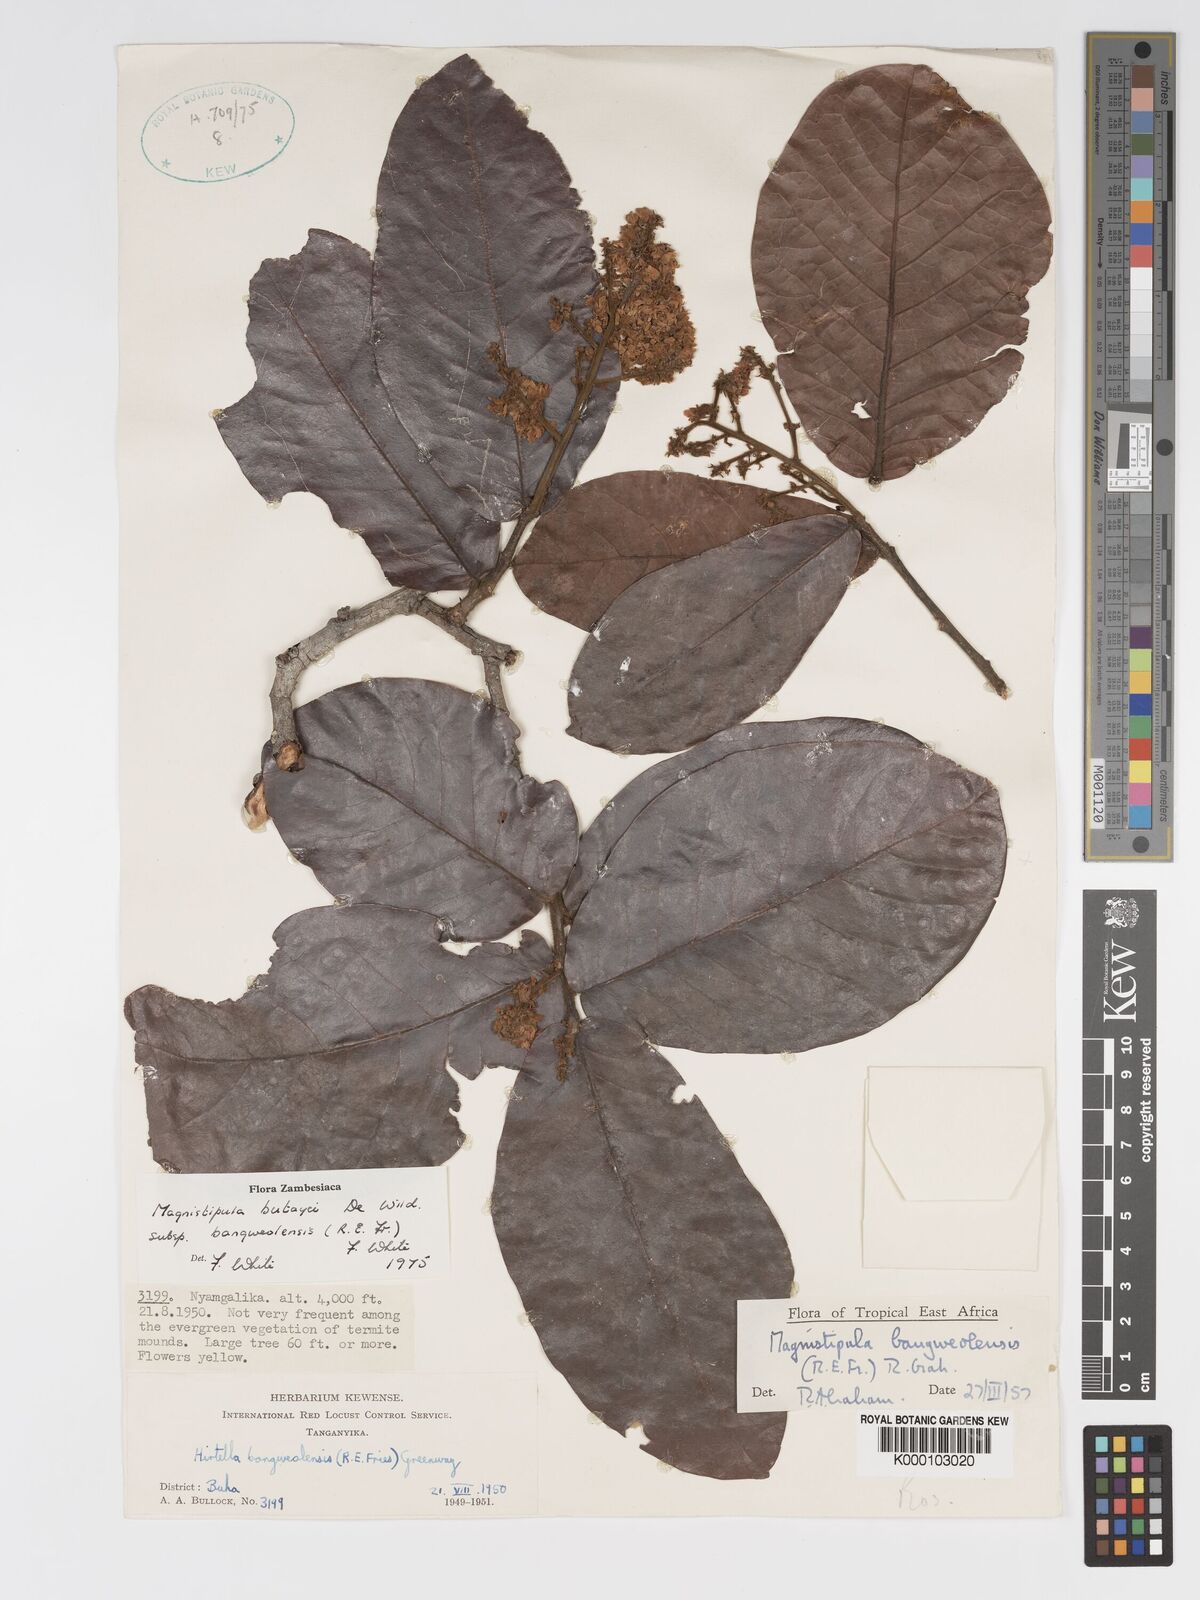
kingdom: Plantae
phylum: Tracheophyta
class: Magnoliopsida
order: Malpighiales
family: Chrysobalanaceae
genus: Magnistipula
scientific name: Magnistipula butayei
